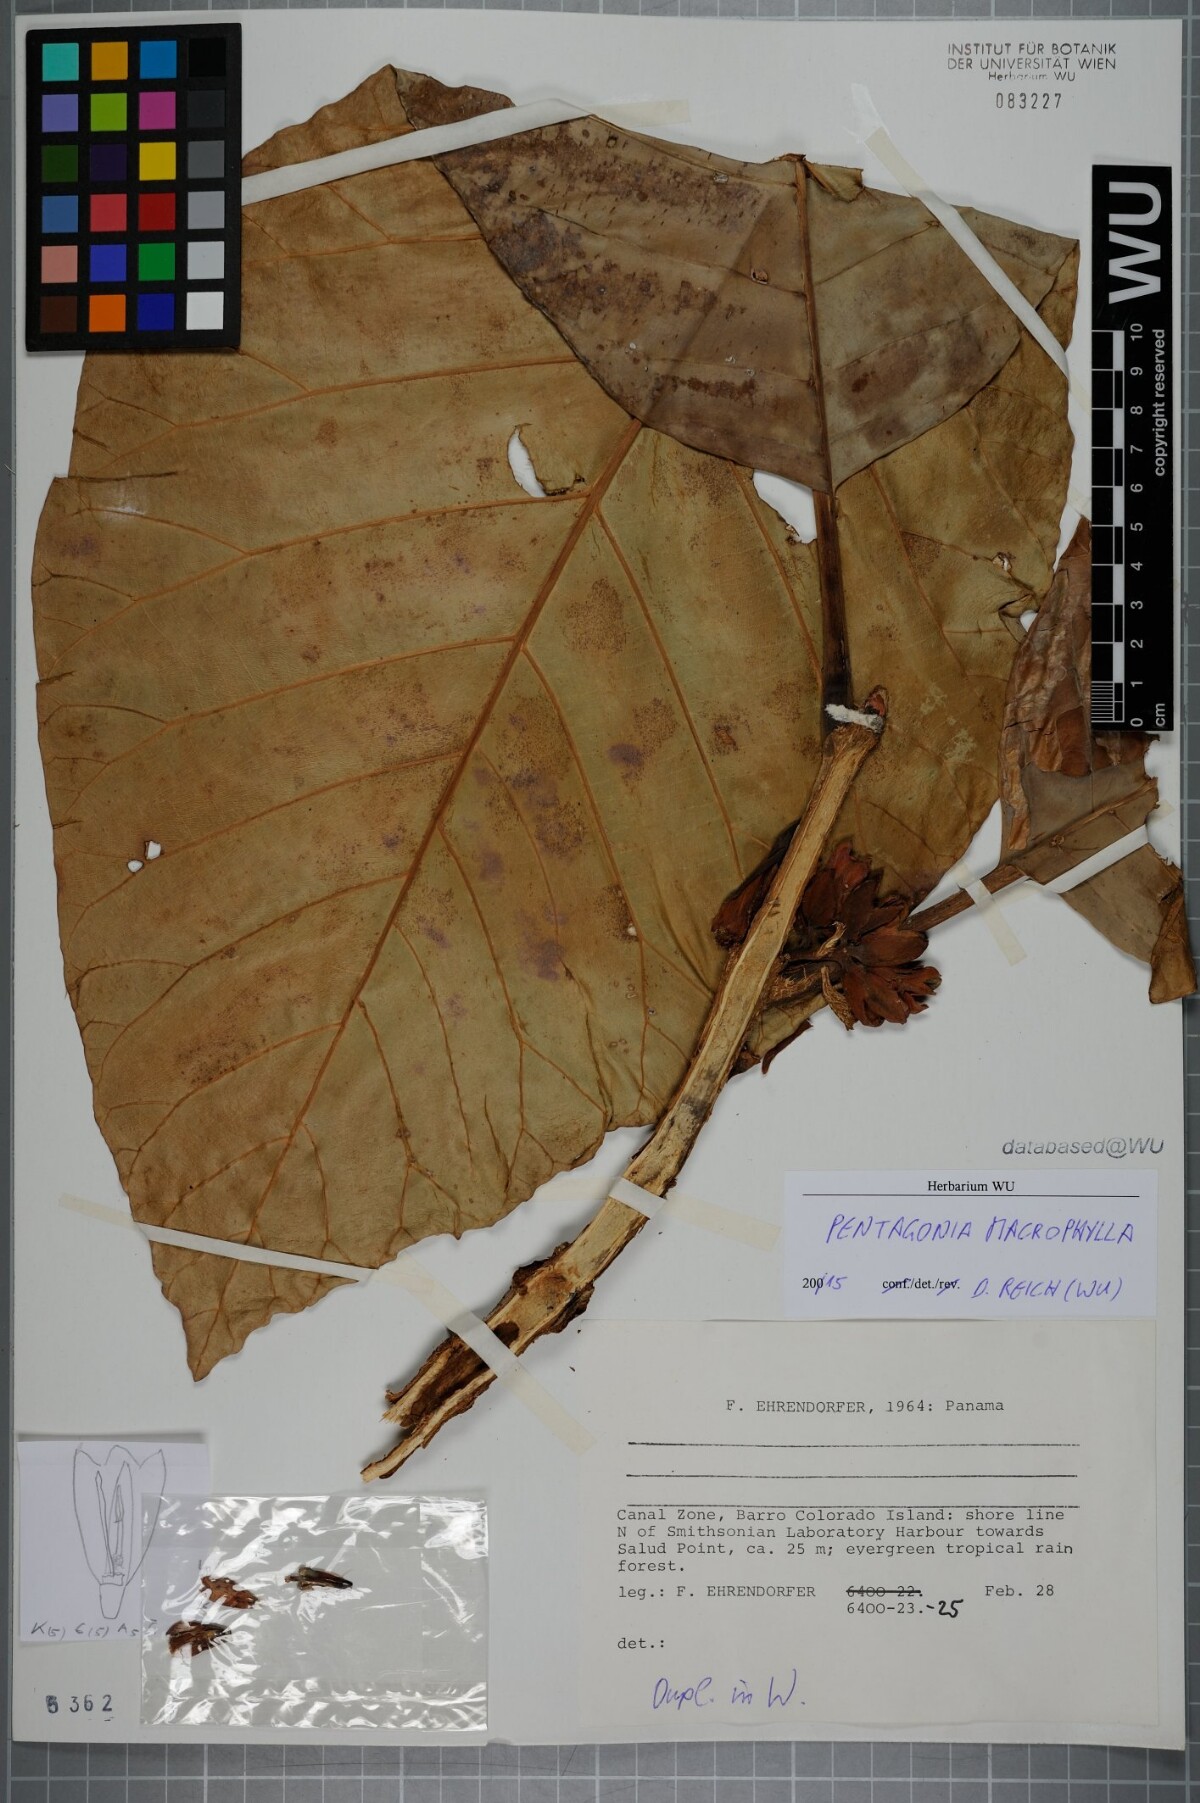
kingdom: Plantae
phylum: Tracheophyta
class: Magnoliopsida
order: Gentianales
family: Rubiaceae
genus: Pentagonia
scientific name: Pentagonia macrophylla
